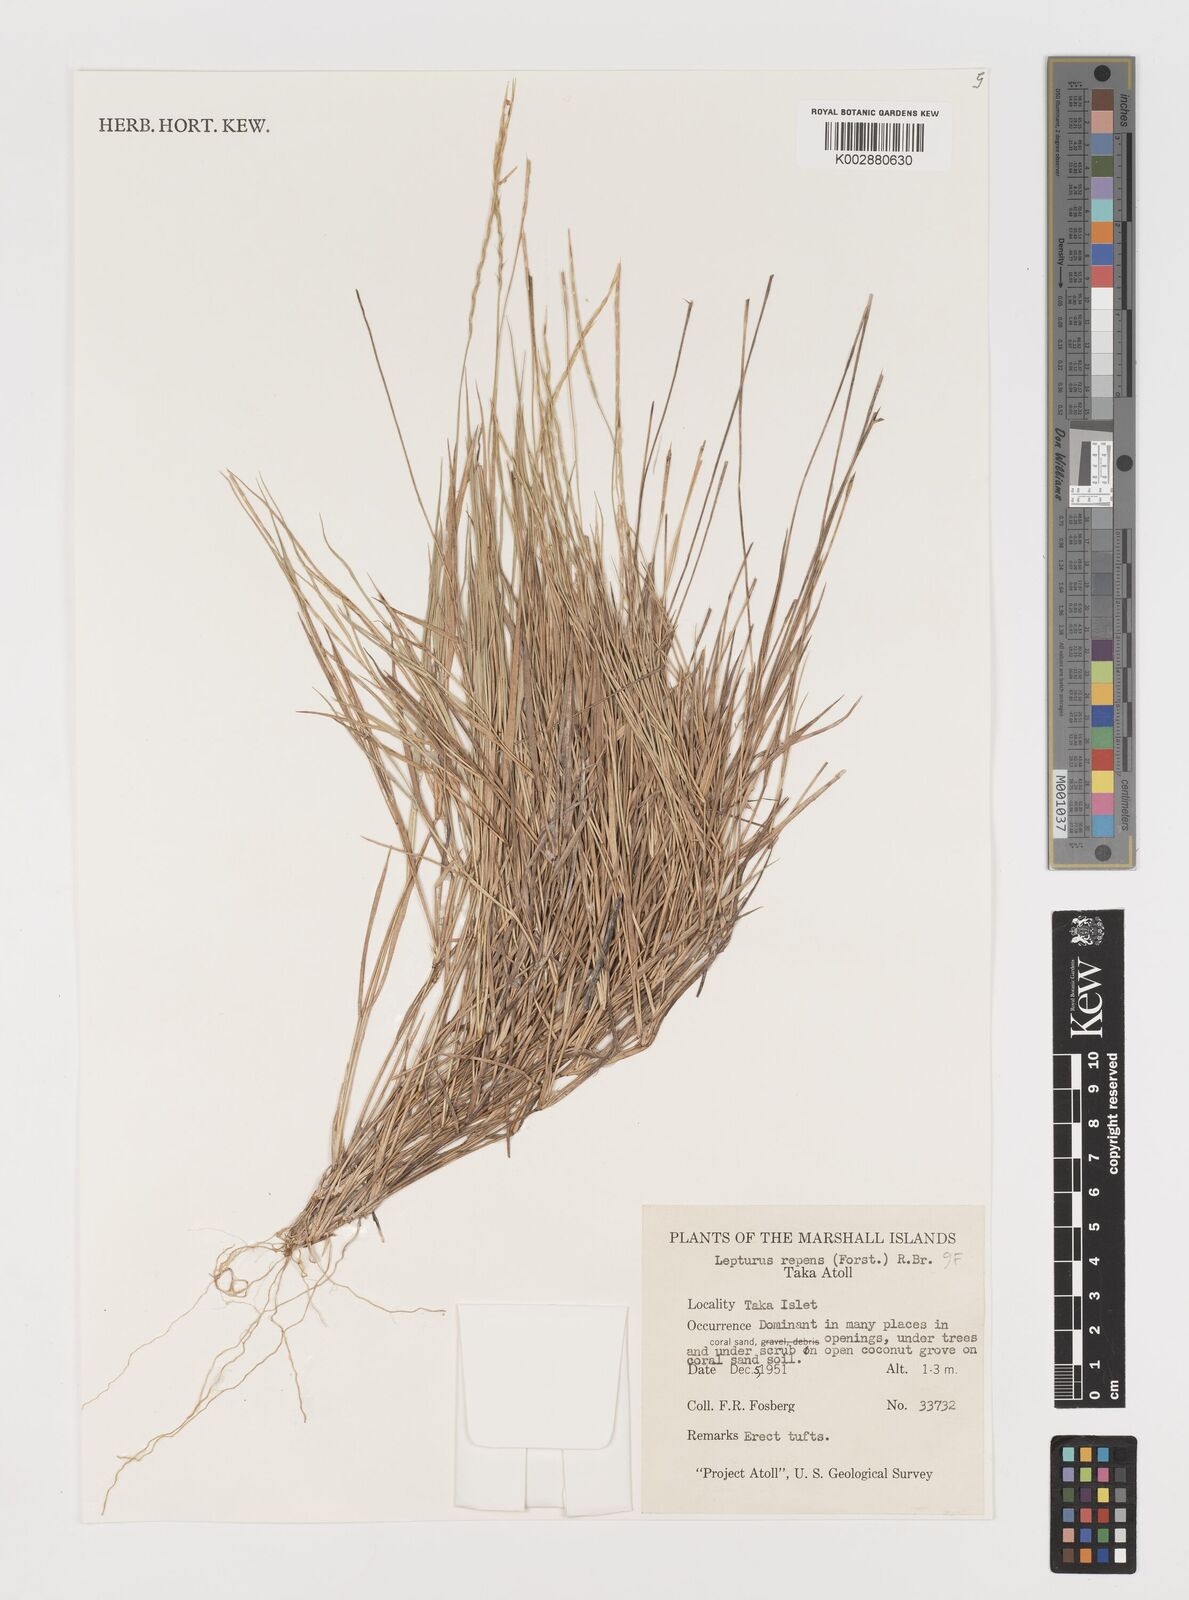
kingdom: Plantae
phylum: Tracheophyta
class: Liliopsida
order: Poales
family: Poaceae
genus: Lepturus
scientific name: Lepturus repens
